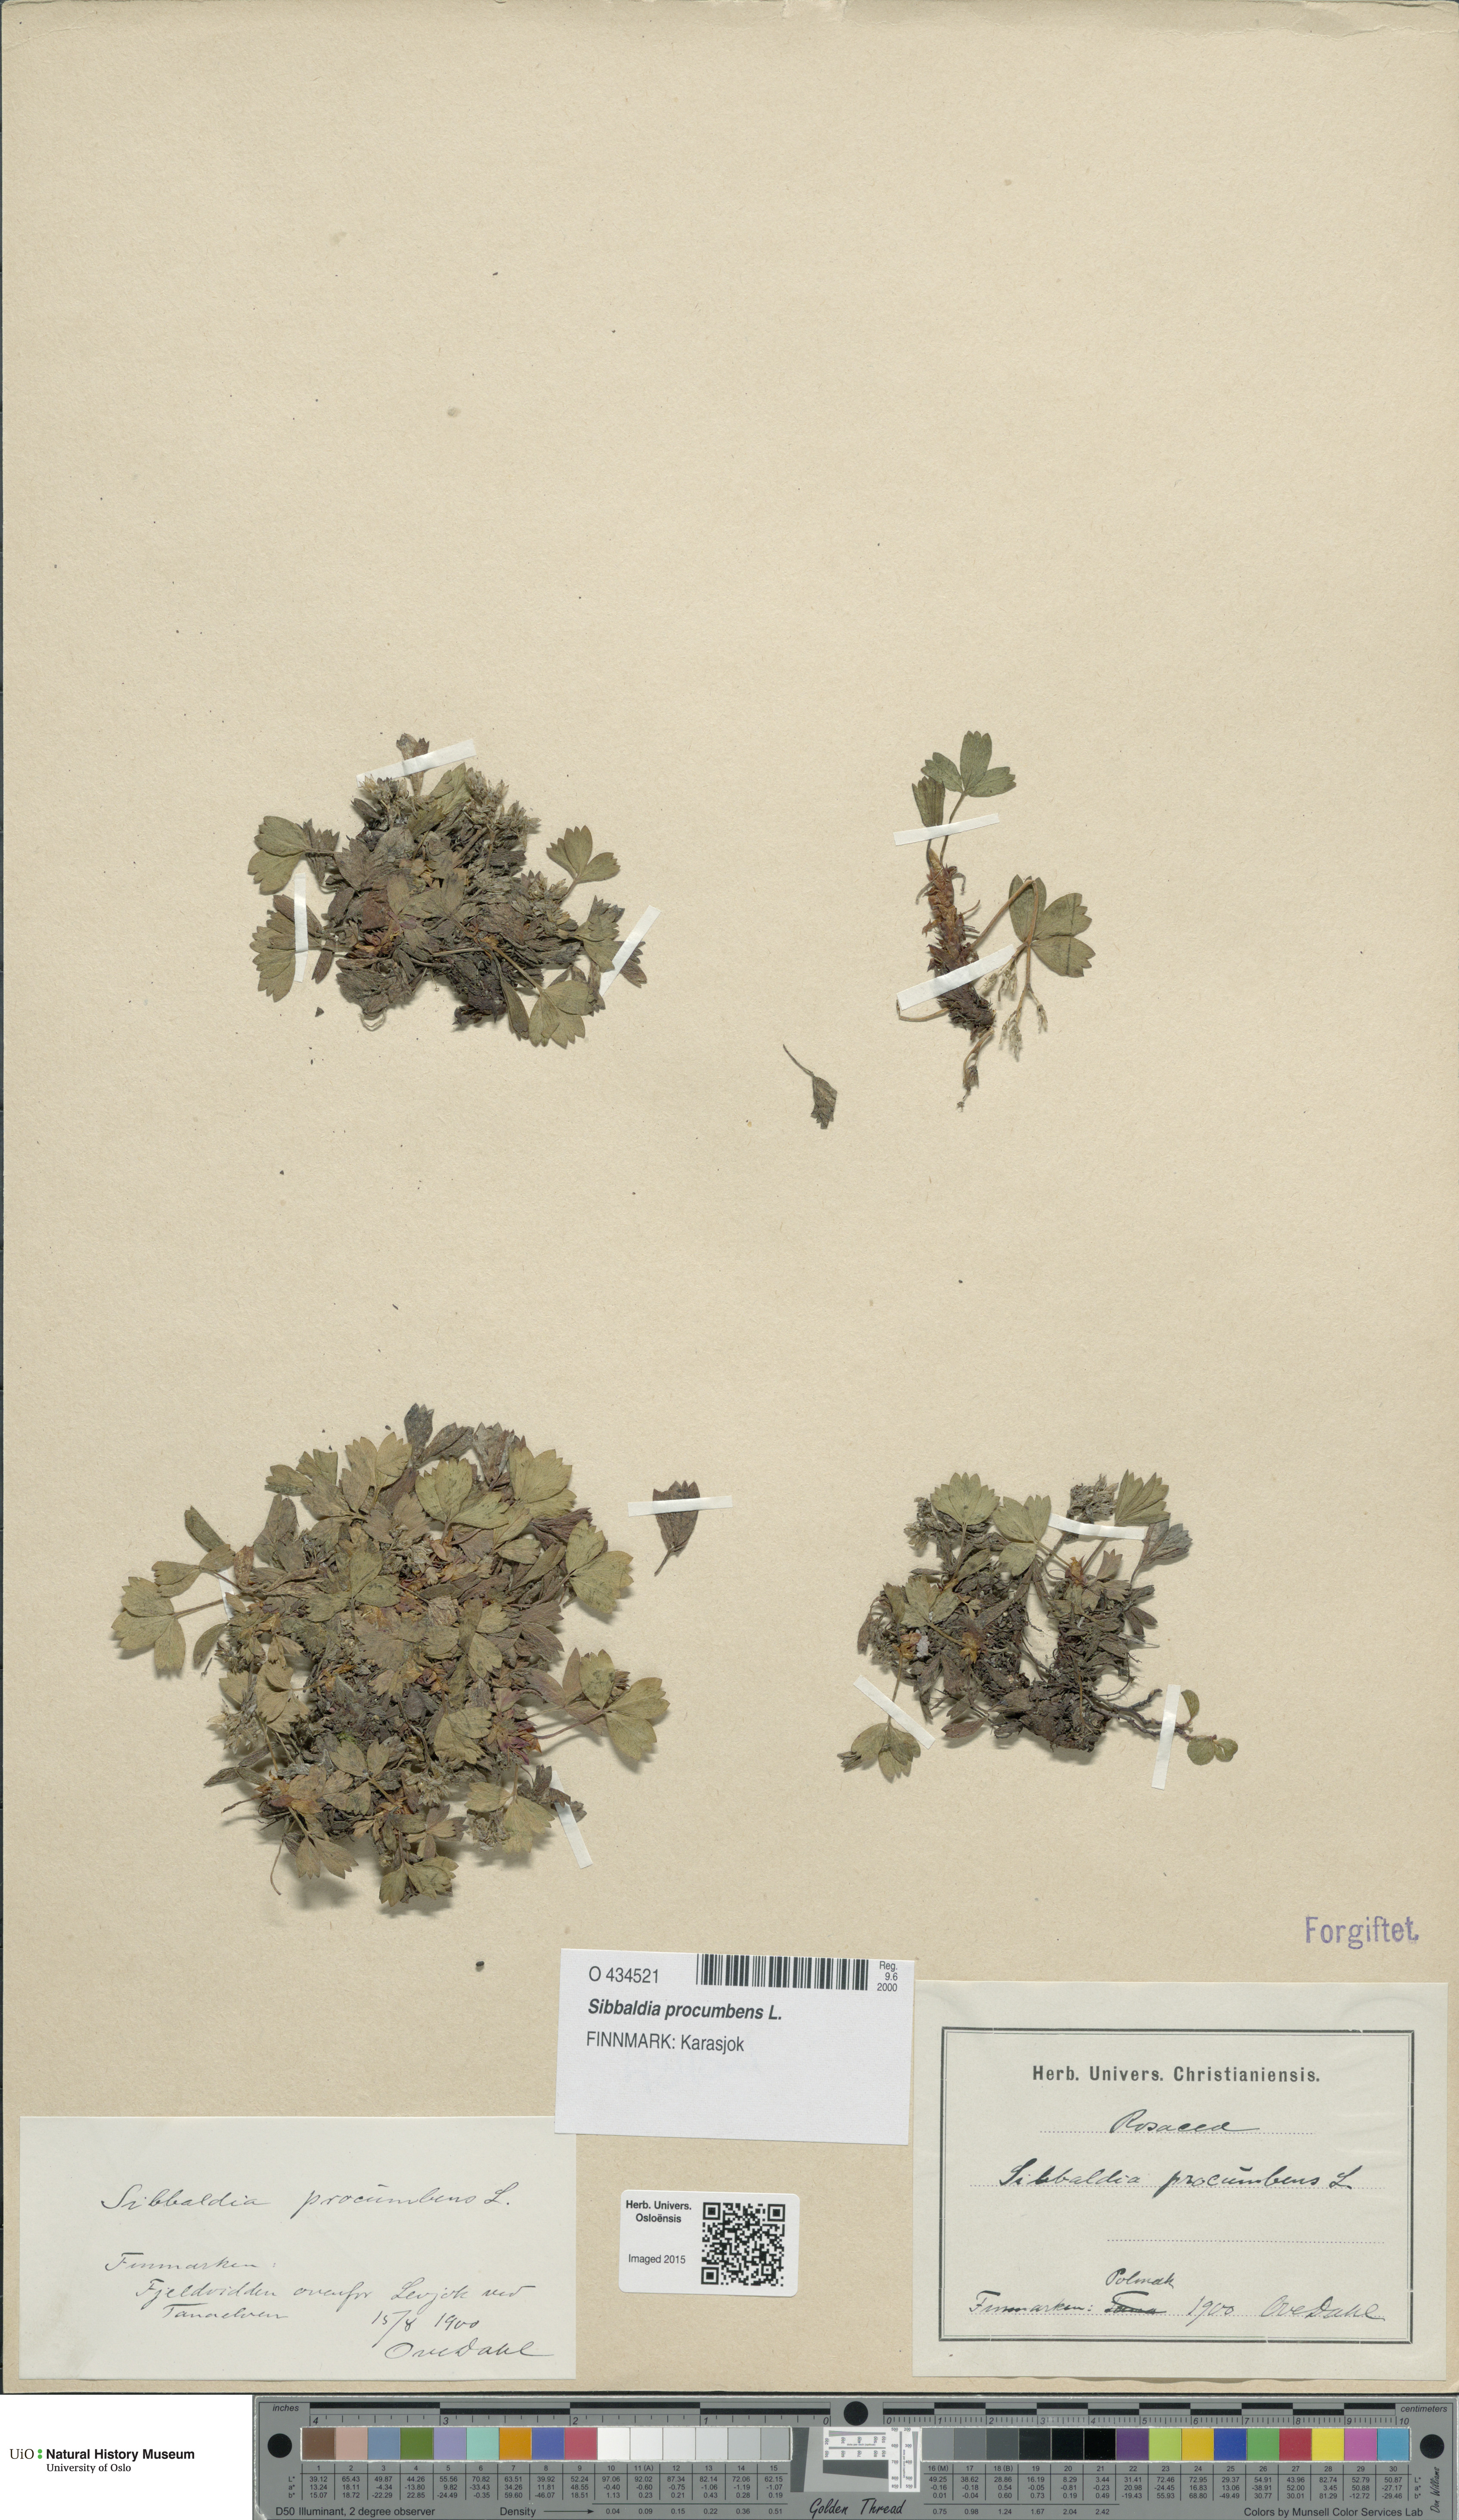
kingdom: Plantae
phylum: Tracheophyta
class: Magnoliopsida
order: Rosales
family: Rosaceae
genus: Sibbaldia
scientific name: Sibbaldia procumbens
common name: Creeping sibbaldia
